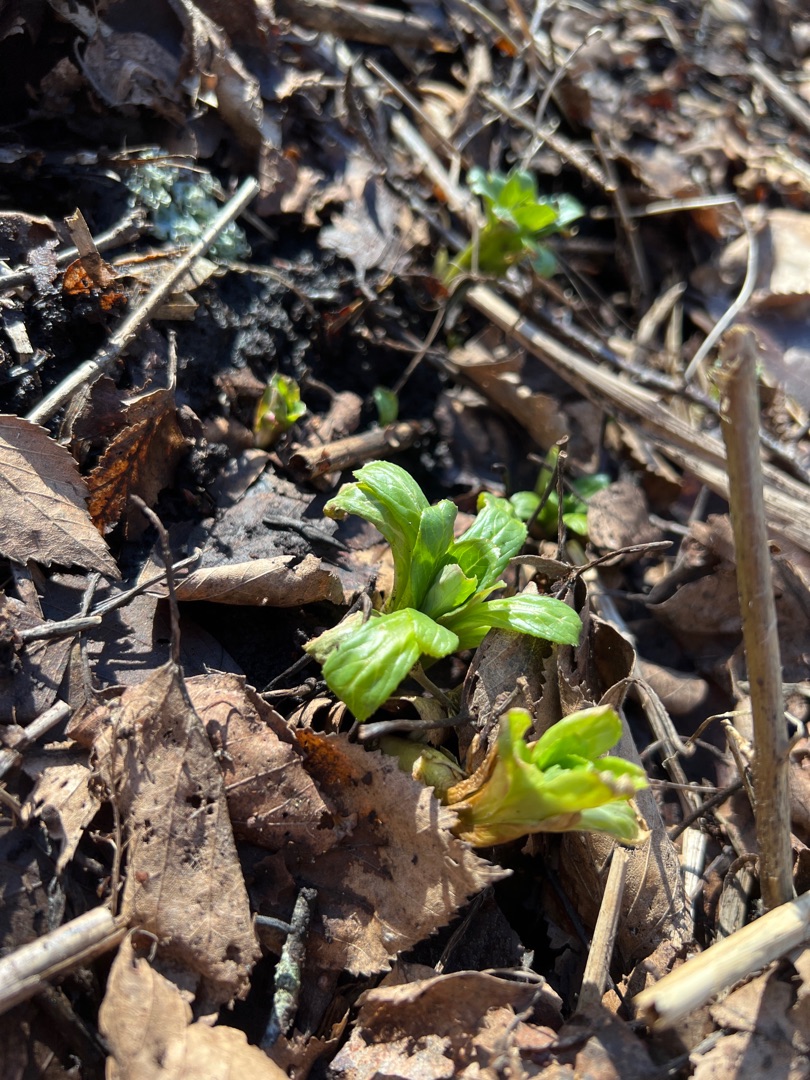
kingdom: Plantae
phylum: Tracheophyta
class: Magnoliopsida
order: Myrtales
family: Onagraceae
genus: Epilobium
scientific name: Epilobium
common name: Dueurtslægten
